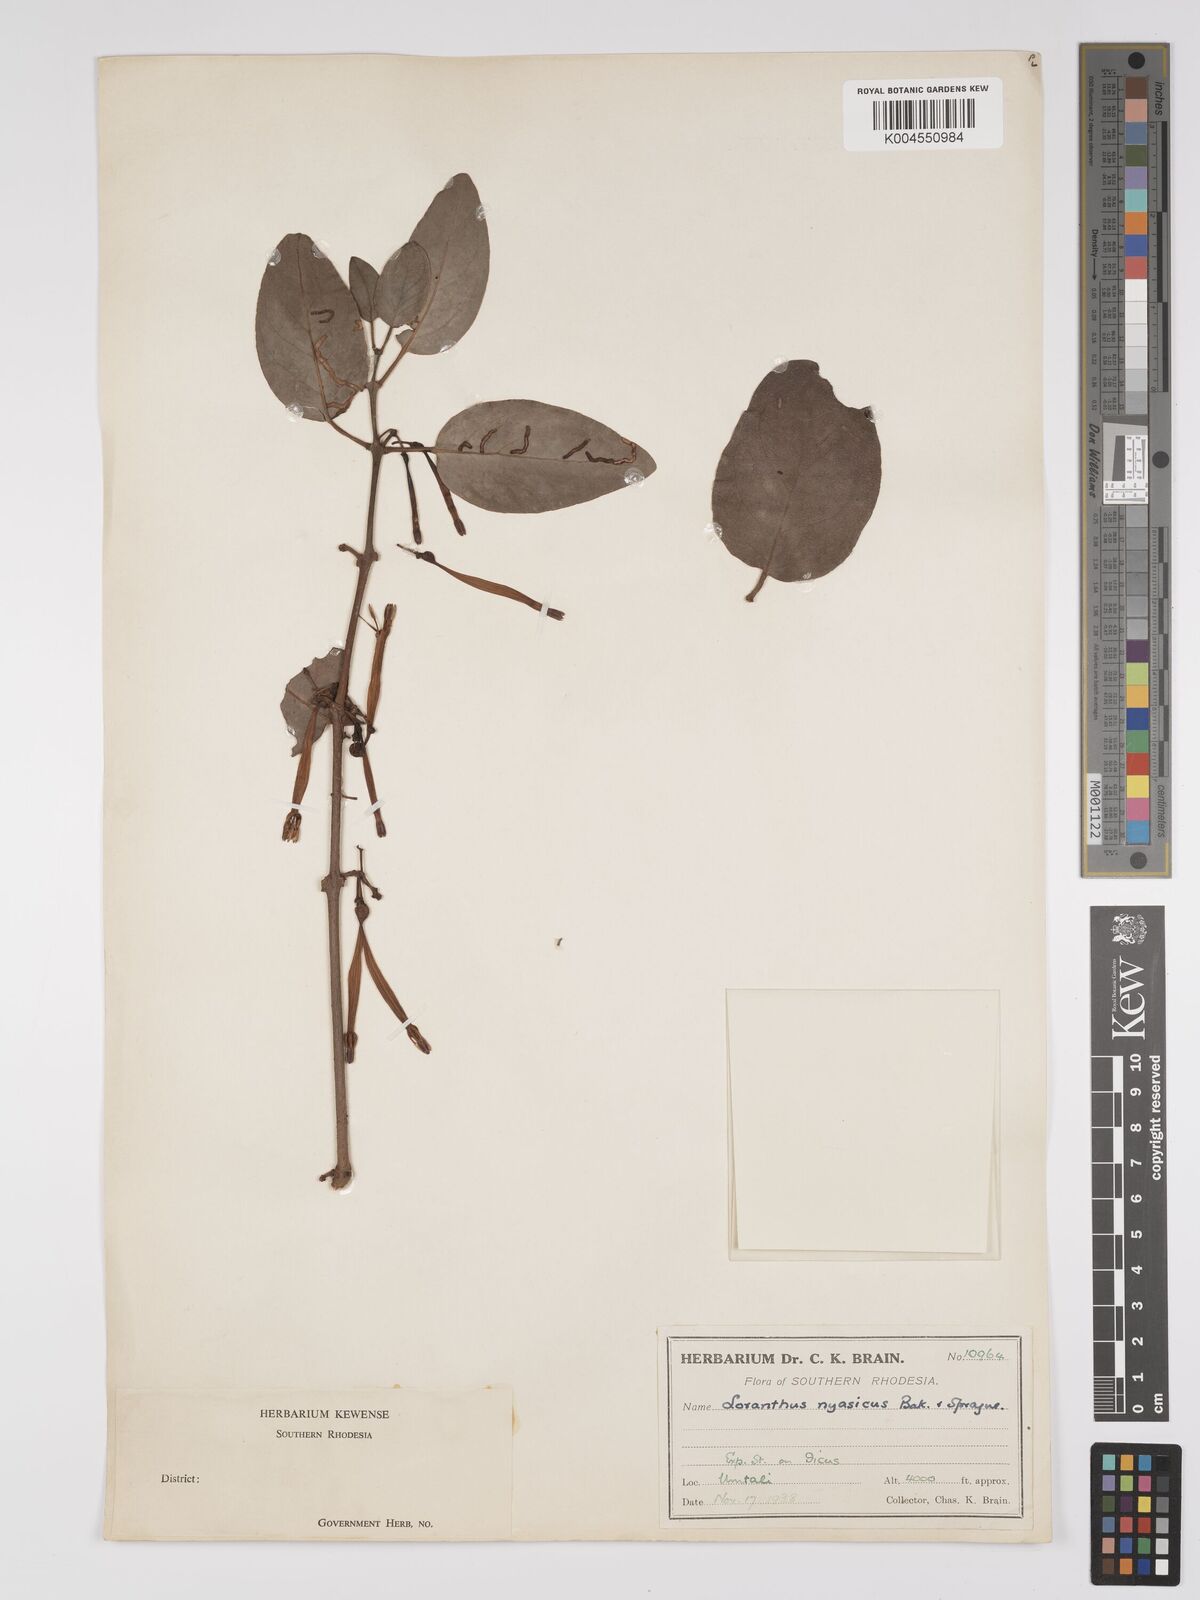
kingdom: Plantae
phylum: Tracheophyta
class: Magnoliopsida
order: Santalales
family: Loranthaceae
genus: Agelanthus
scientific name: Agelanthus flammeus
